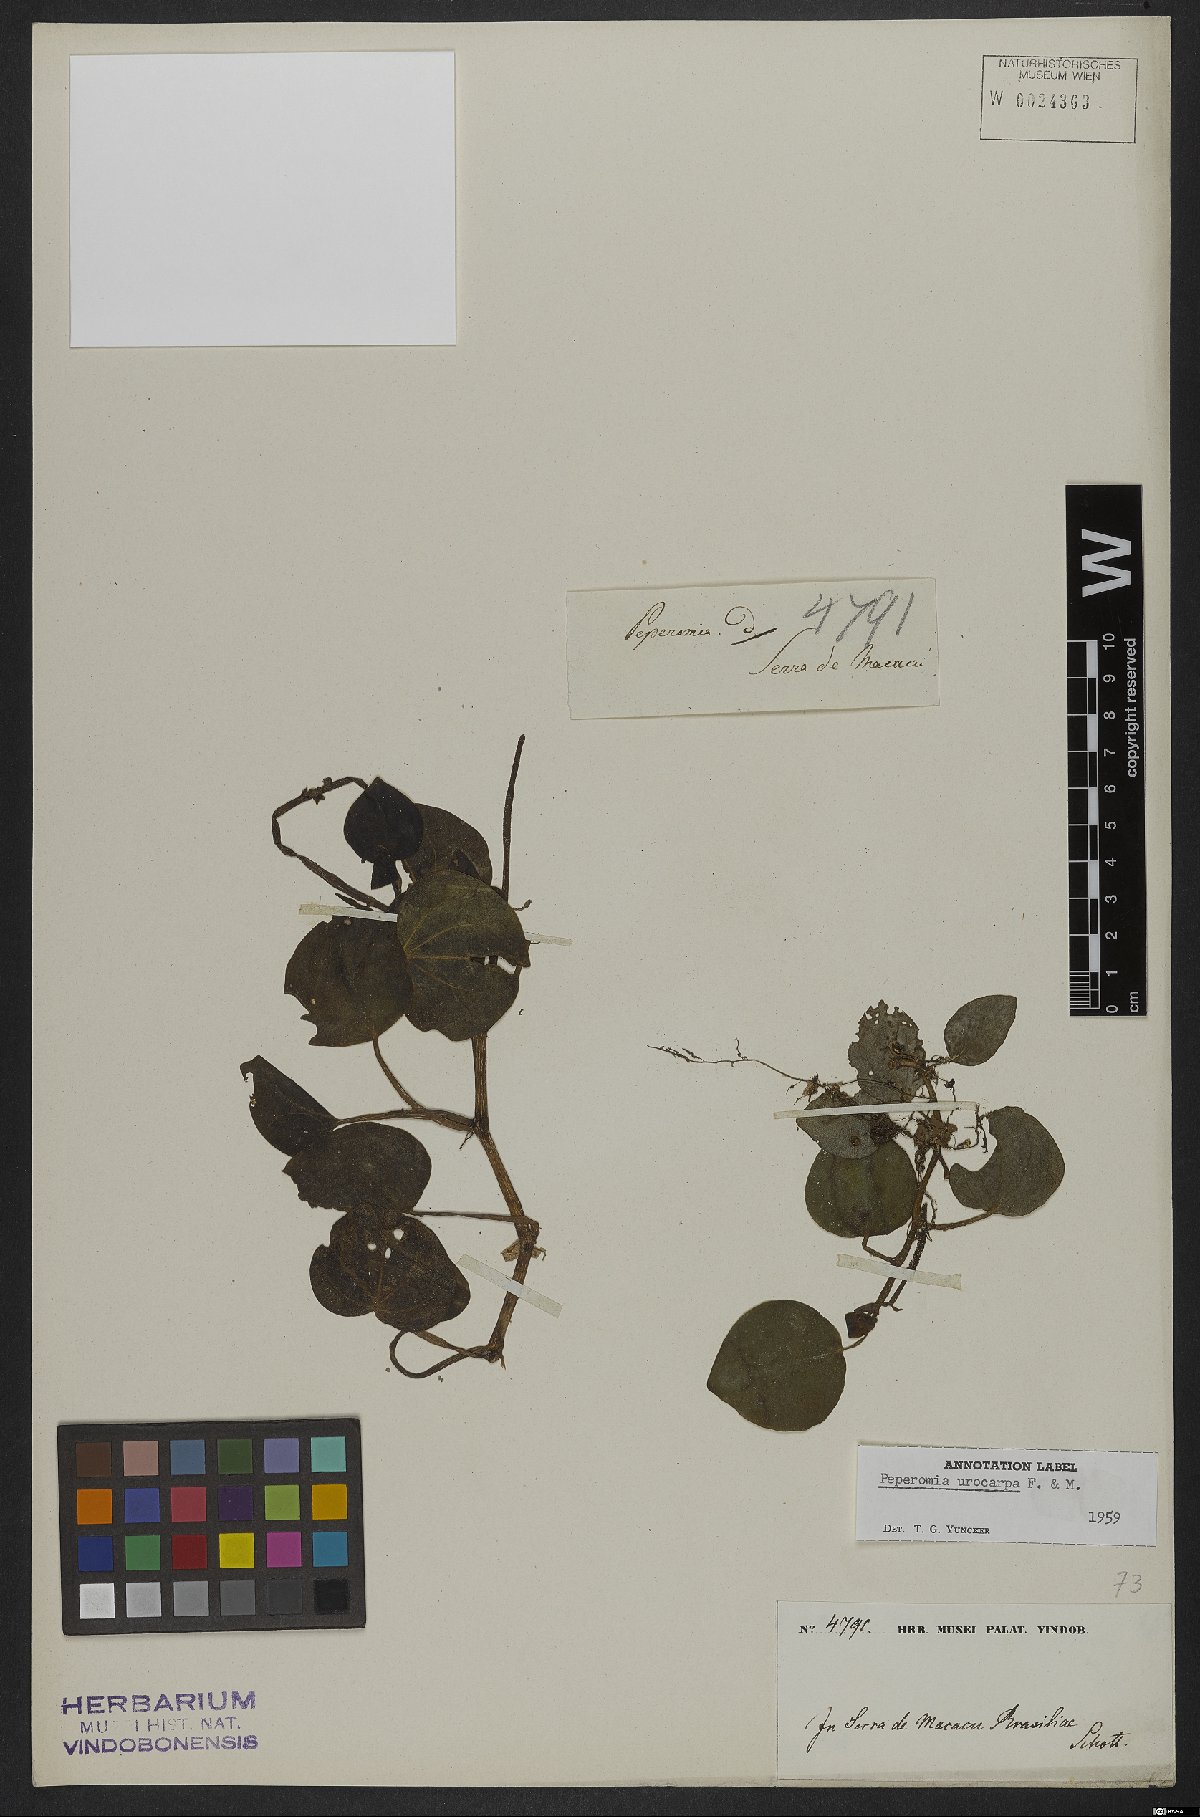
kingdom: Plantae
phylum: Tracheophyta
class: Magnoliopsida
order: Piperales
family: Piperaceae
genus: Peperomia
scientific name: Peperomia urocarpa
